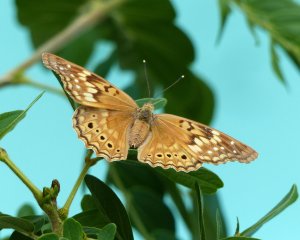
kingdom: Animalia
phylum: Arthropoda
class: Insecta
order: Lepidoptera
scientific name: Lepidoptera
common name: Butterflies
